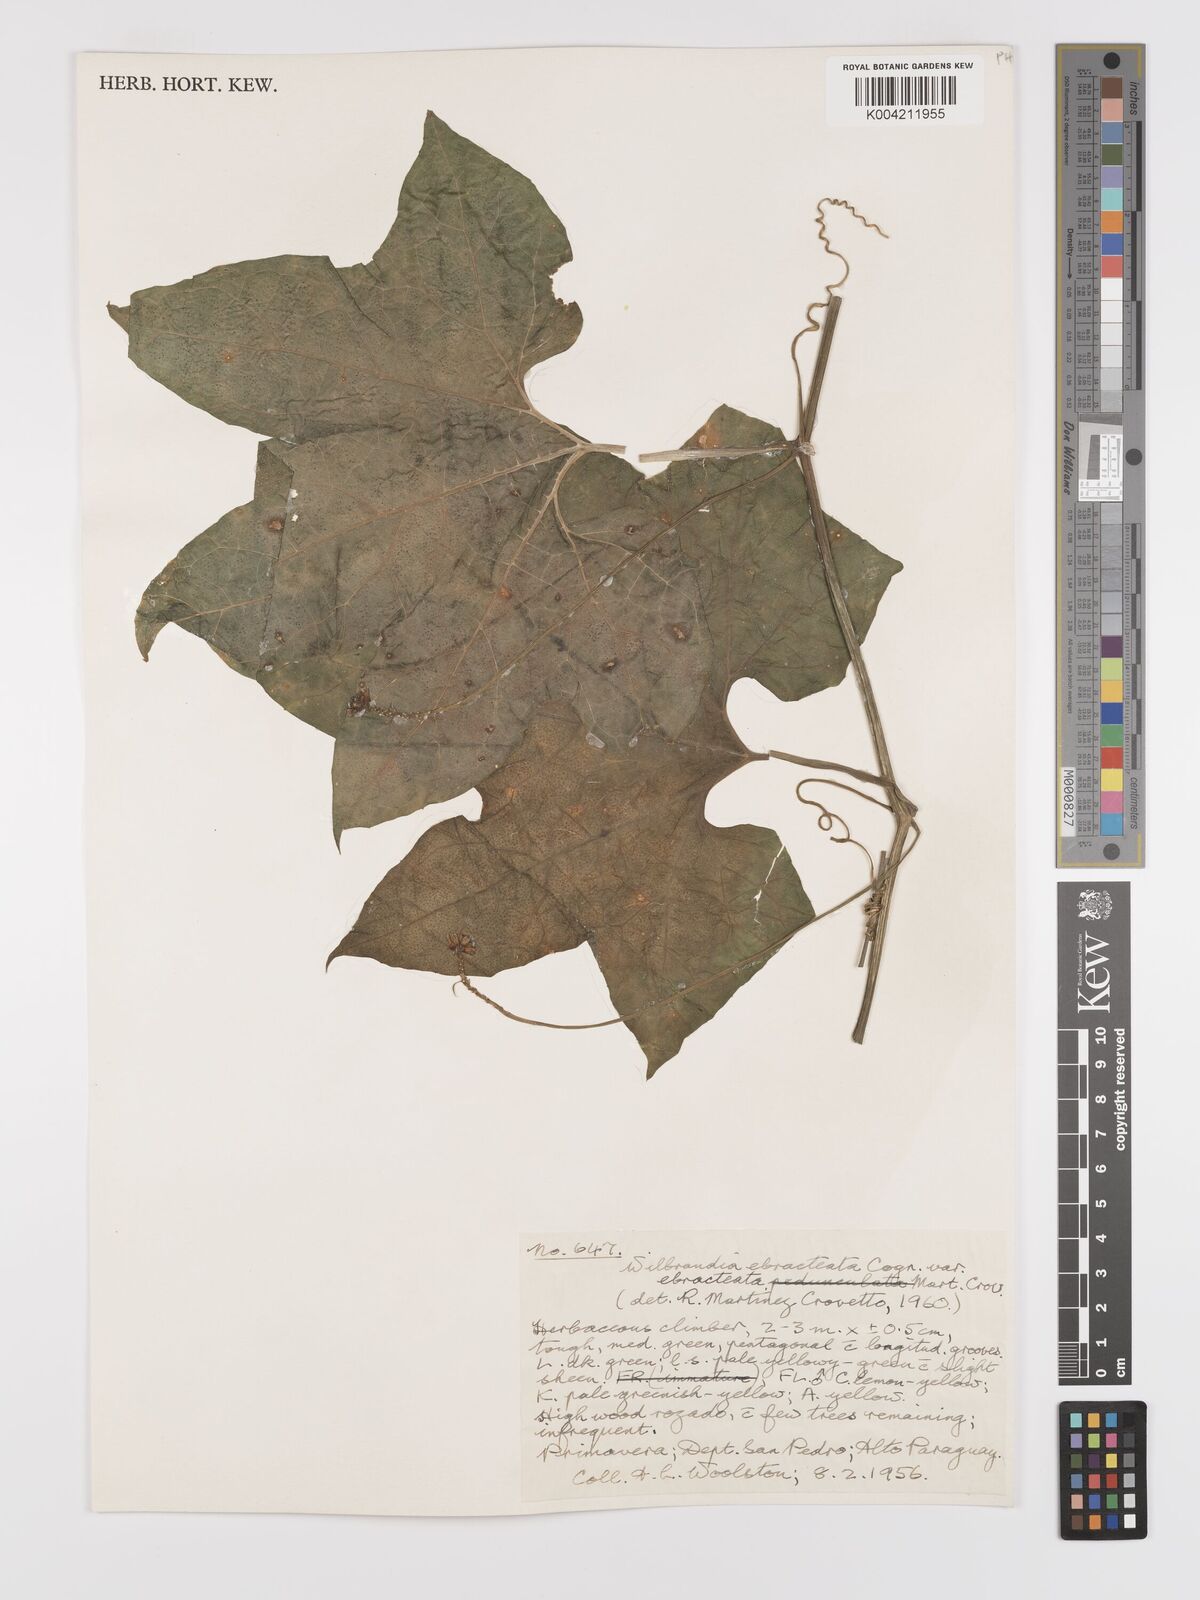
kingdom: Plantae
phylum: Tracheophyta
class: Magnoliopsida
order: Cucurbitales
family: Cucurbitaceae
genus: Wilbrandia
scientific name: Wilbrandia ebracteata
